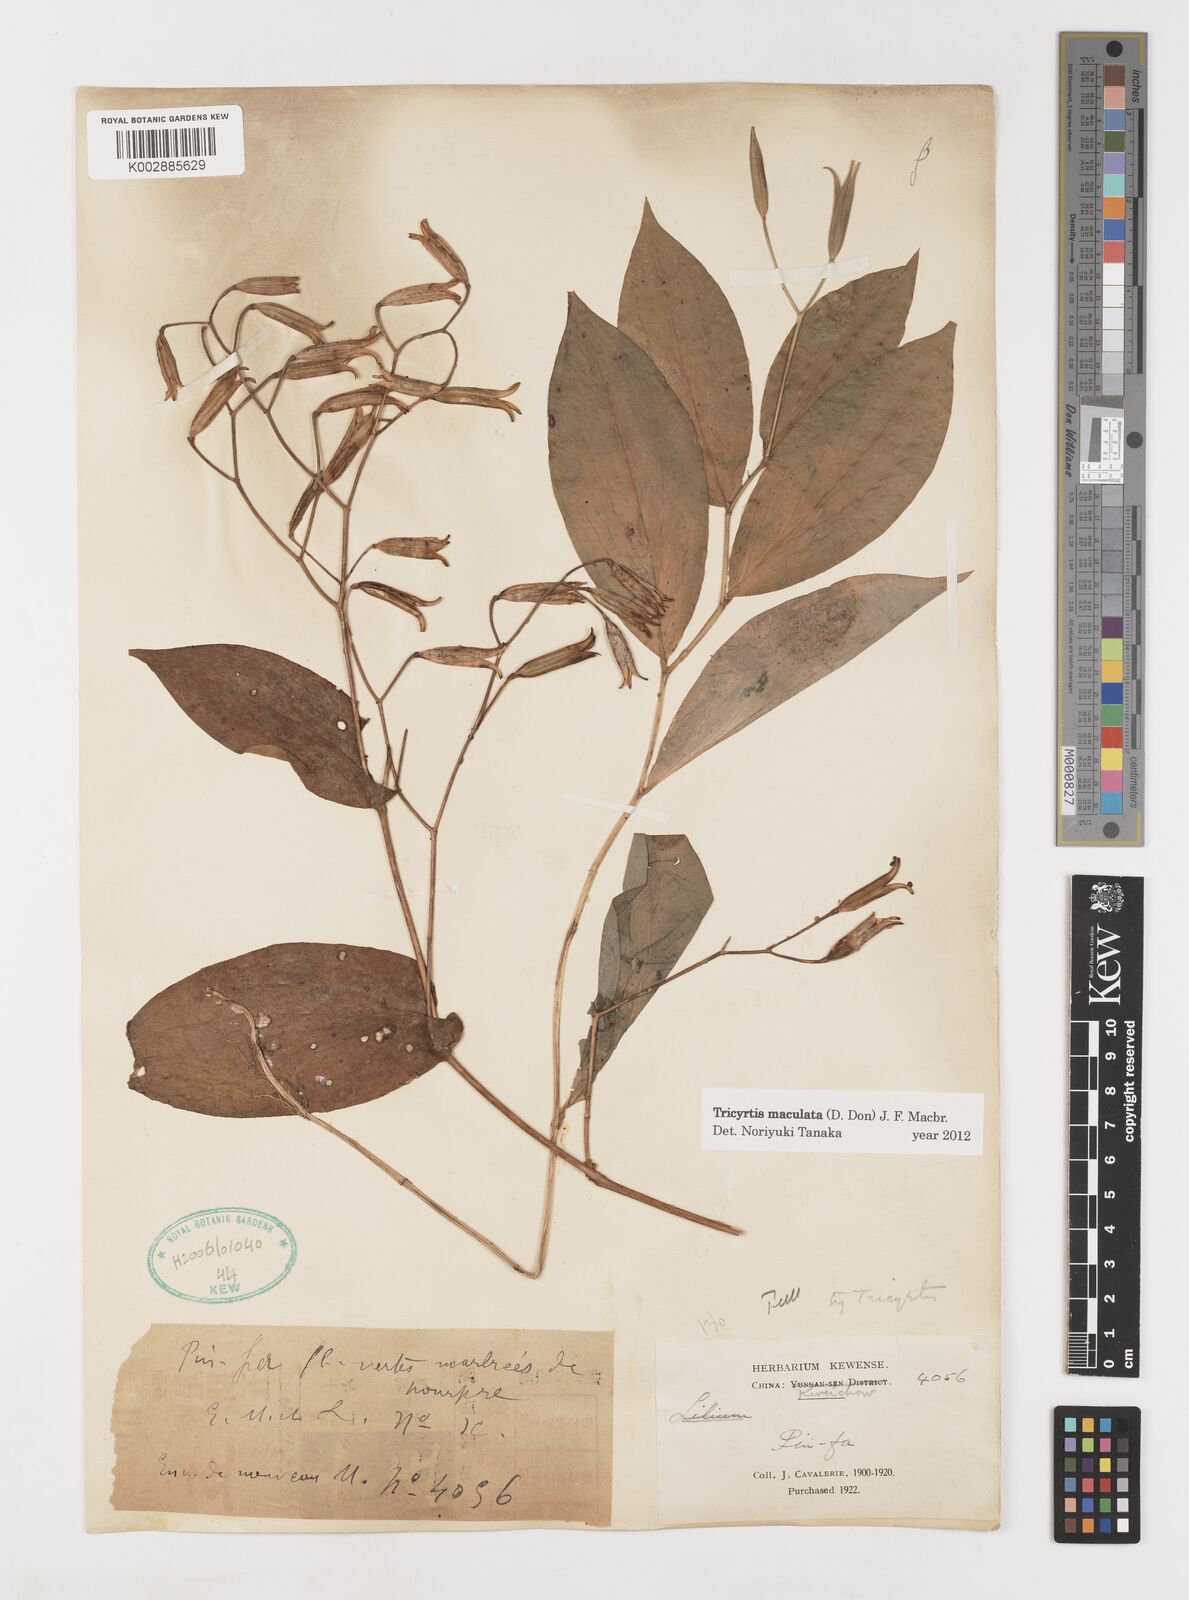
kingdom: Plantae
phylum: Tracheophyta
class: Liliopsida
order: Liliales
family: Liliaceae
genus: Tricyrtis
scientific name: Tricyrtis maculata
